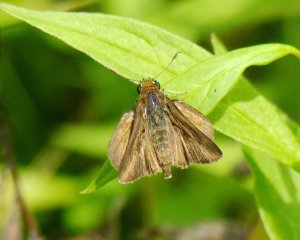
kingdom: Animalia
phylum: Arthropoda
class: Insecta
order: Lepidoptera
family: Hesperiidae
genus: Euphyes
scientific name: Euphyes vestris
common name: Dun Skipper
